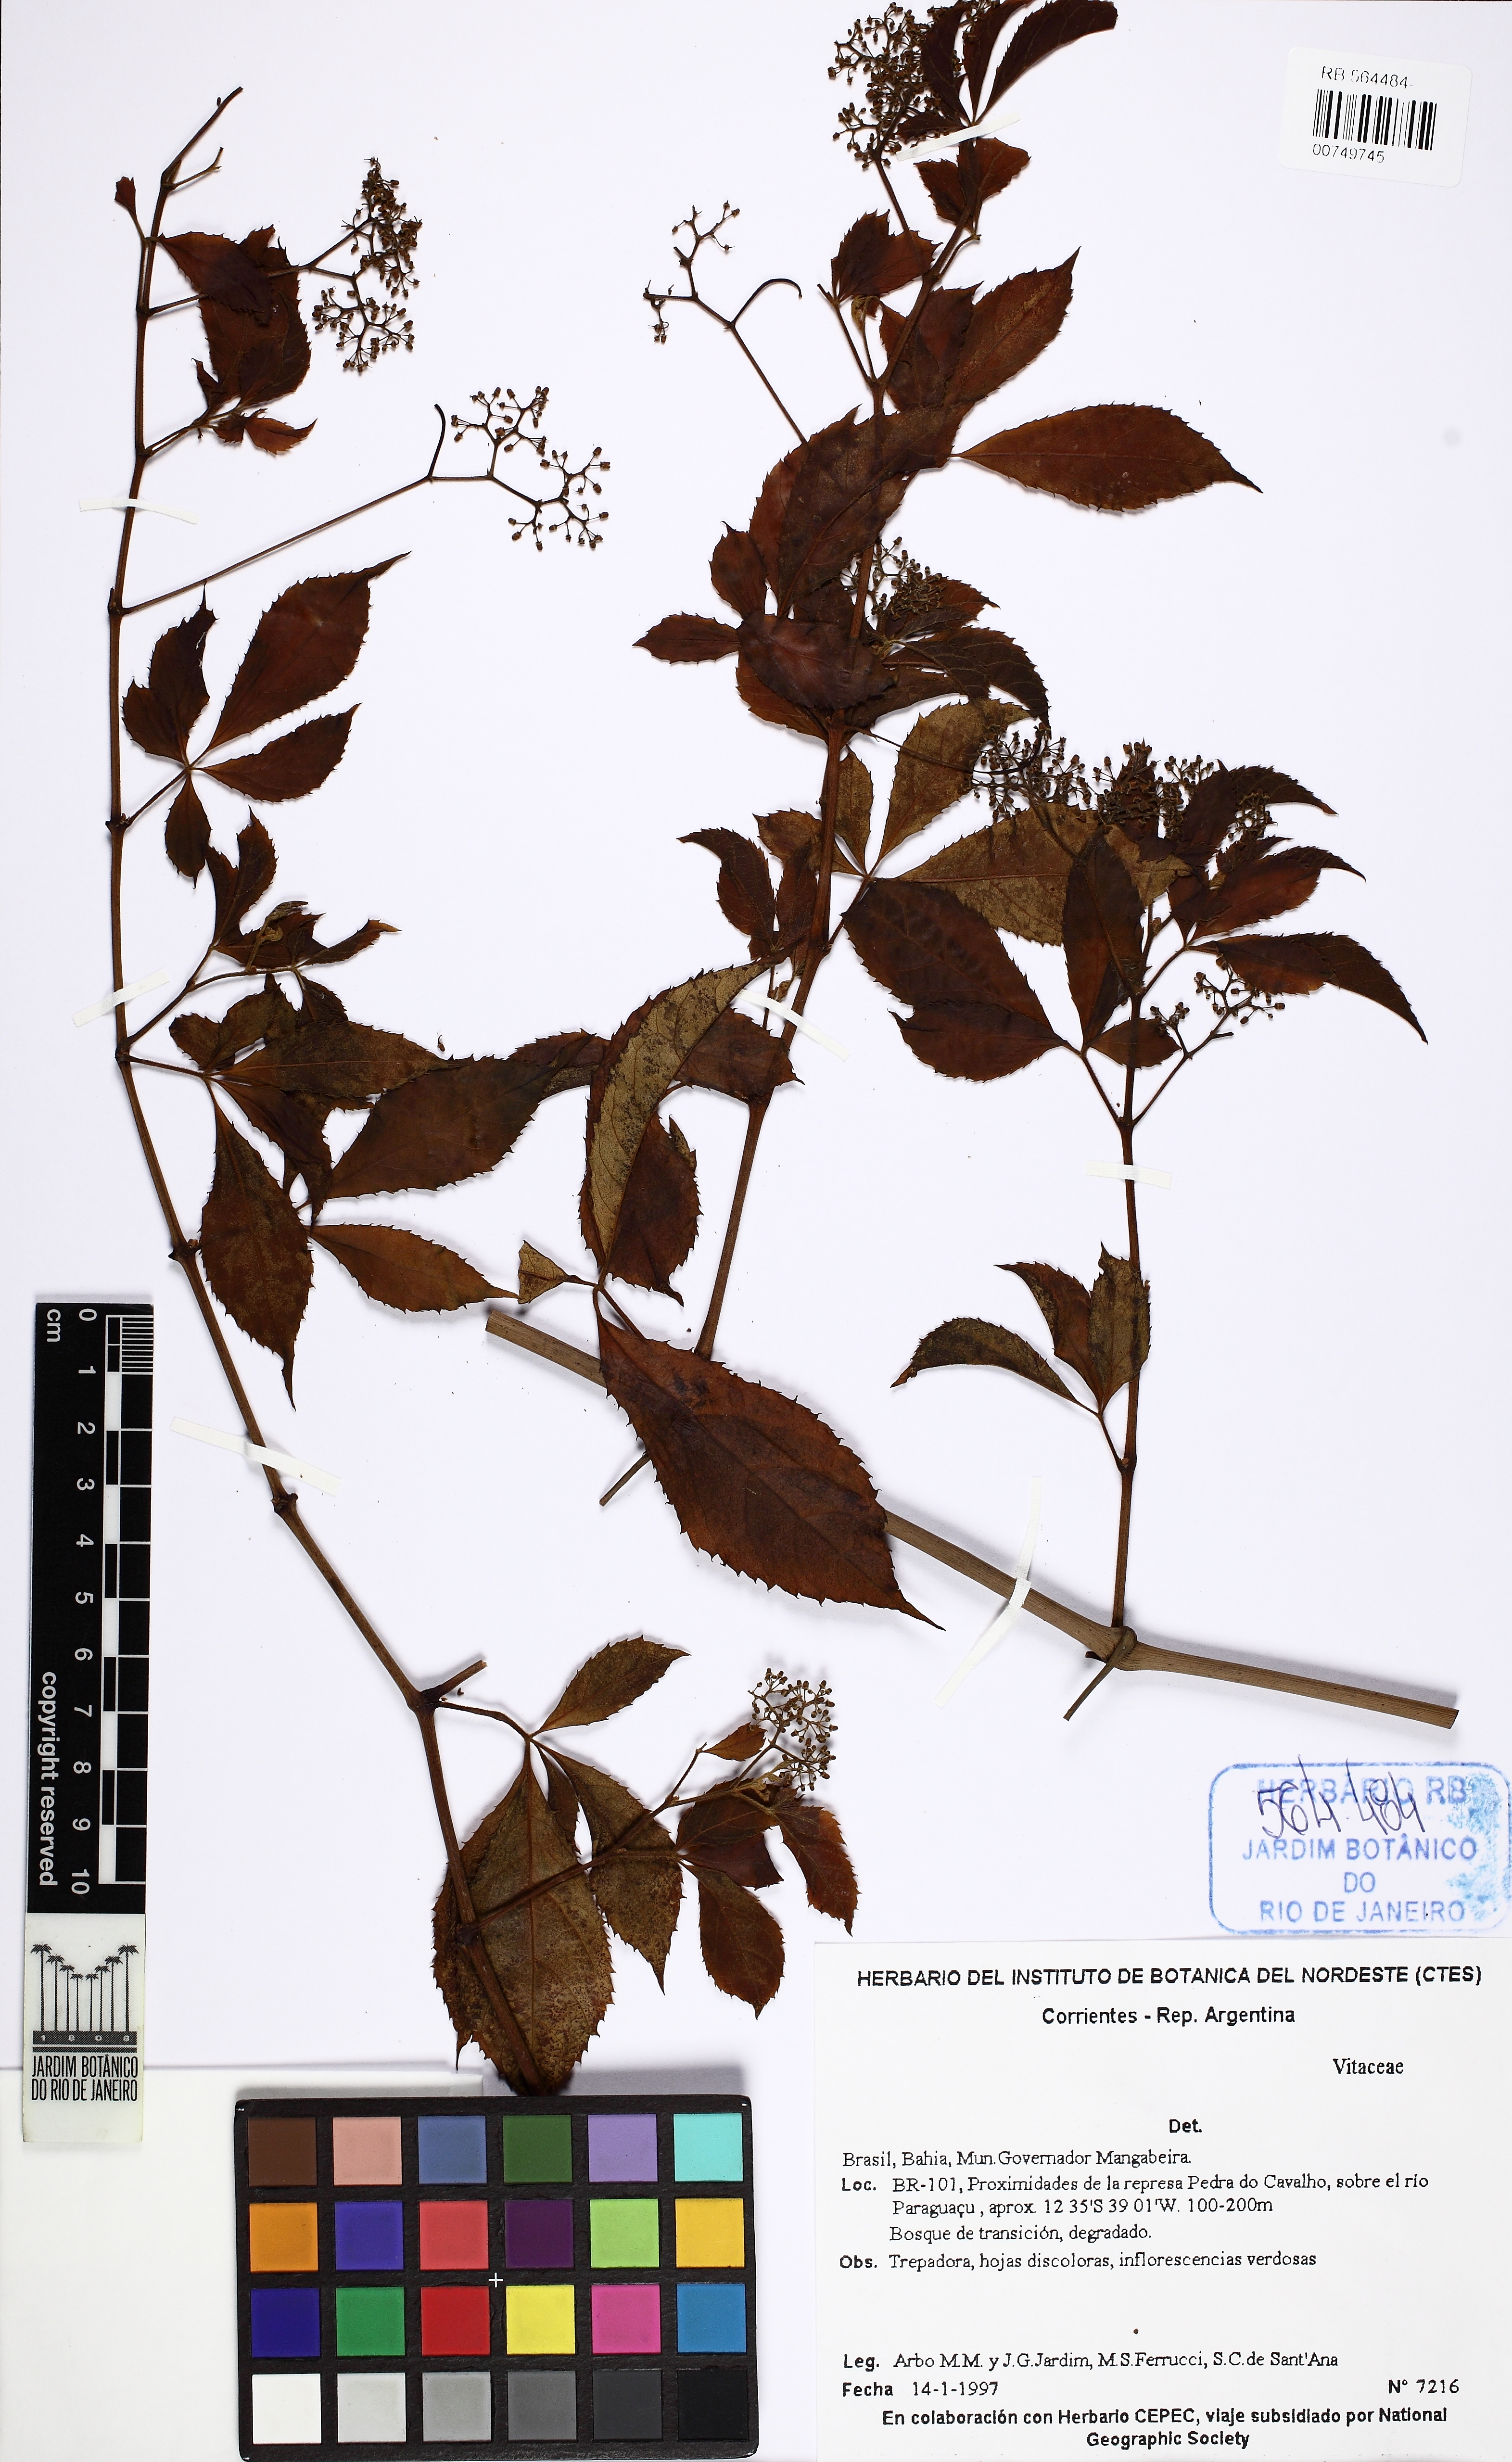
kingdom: Plantae
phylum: Tracheophyta
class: Magnoliopsida
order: Vitales
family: Vitaceae
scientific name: Vitaceae
